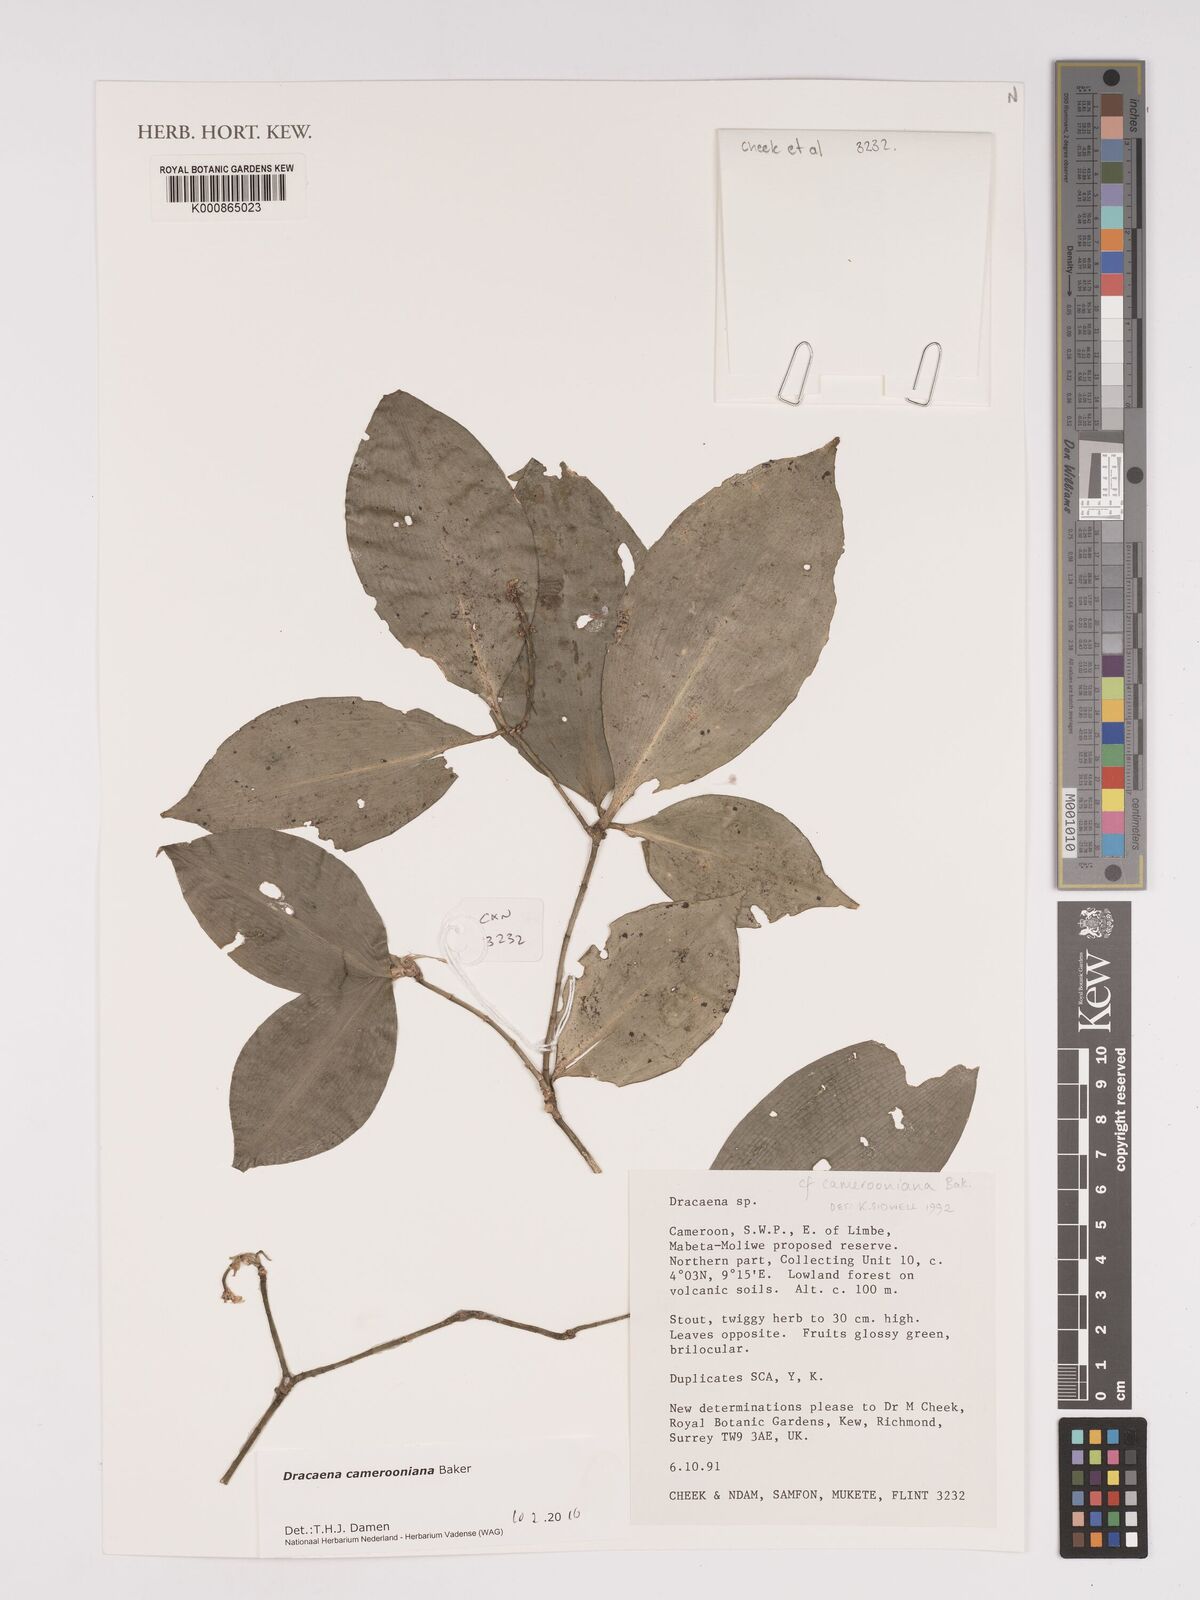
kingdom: Plantae
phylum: Tracheophyta
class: Liliopsida
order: Asparagales
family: Asparagaceae
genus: Dracaena
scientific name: Dracaena camerooniana
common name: Dragon tree
